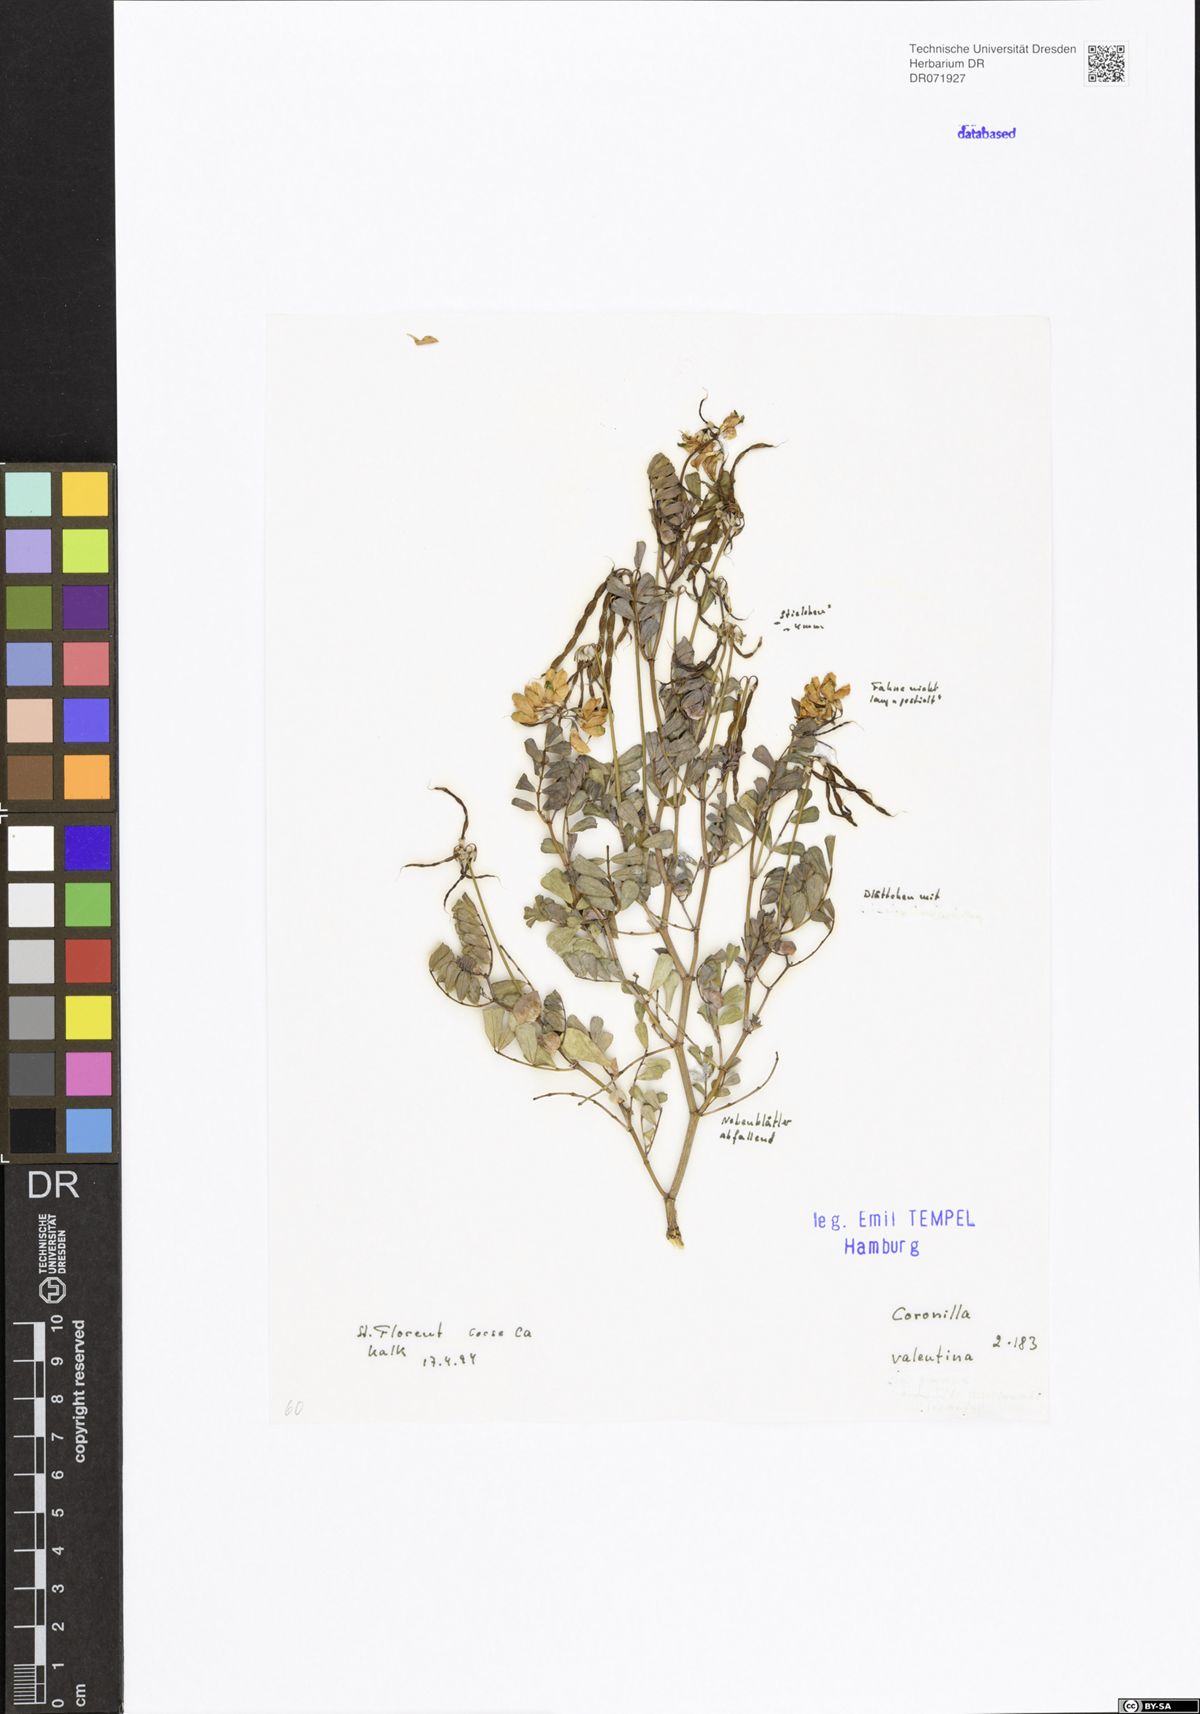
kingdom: Plantae
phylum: Tracheophyta
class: Magnoliopsida
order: Fabales
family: Fabaceae
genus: Coronilla
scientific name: Coronilla valentina
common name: Shrubby scorpion-vetch
